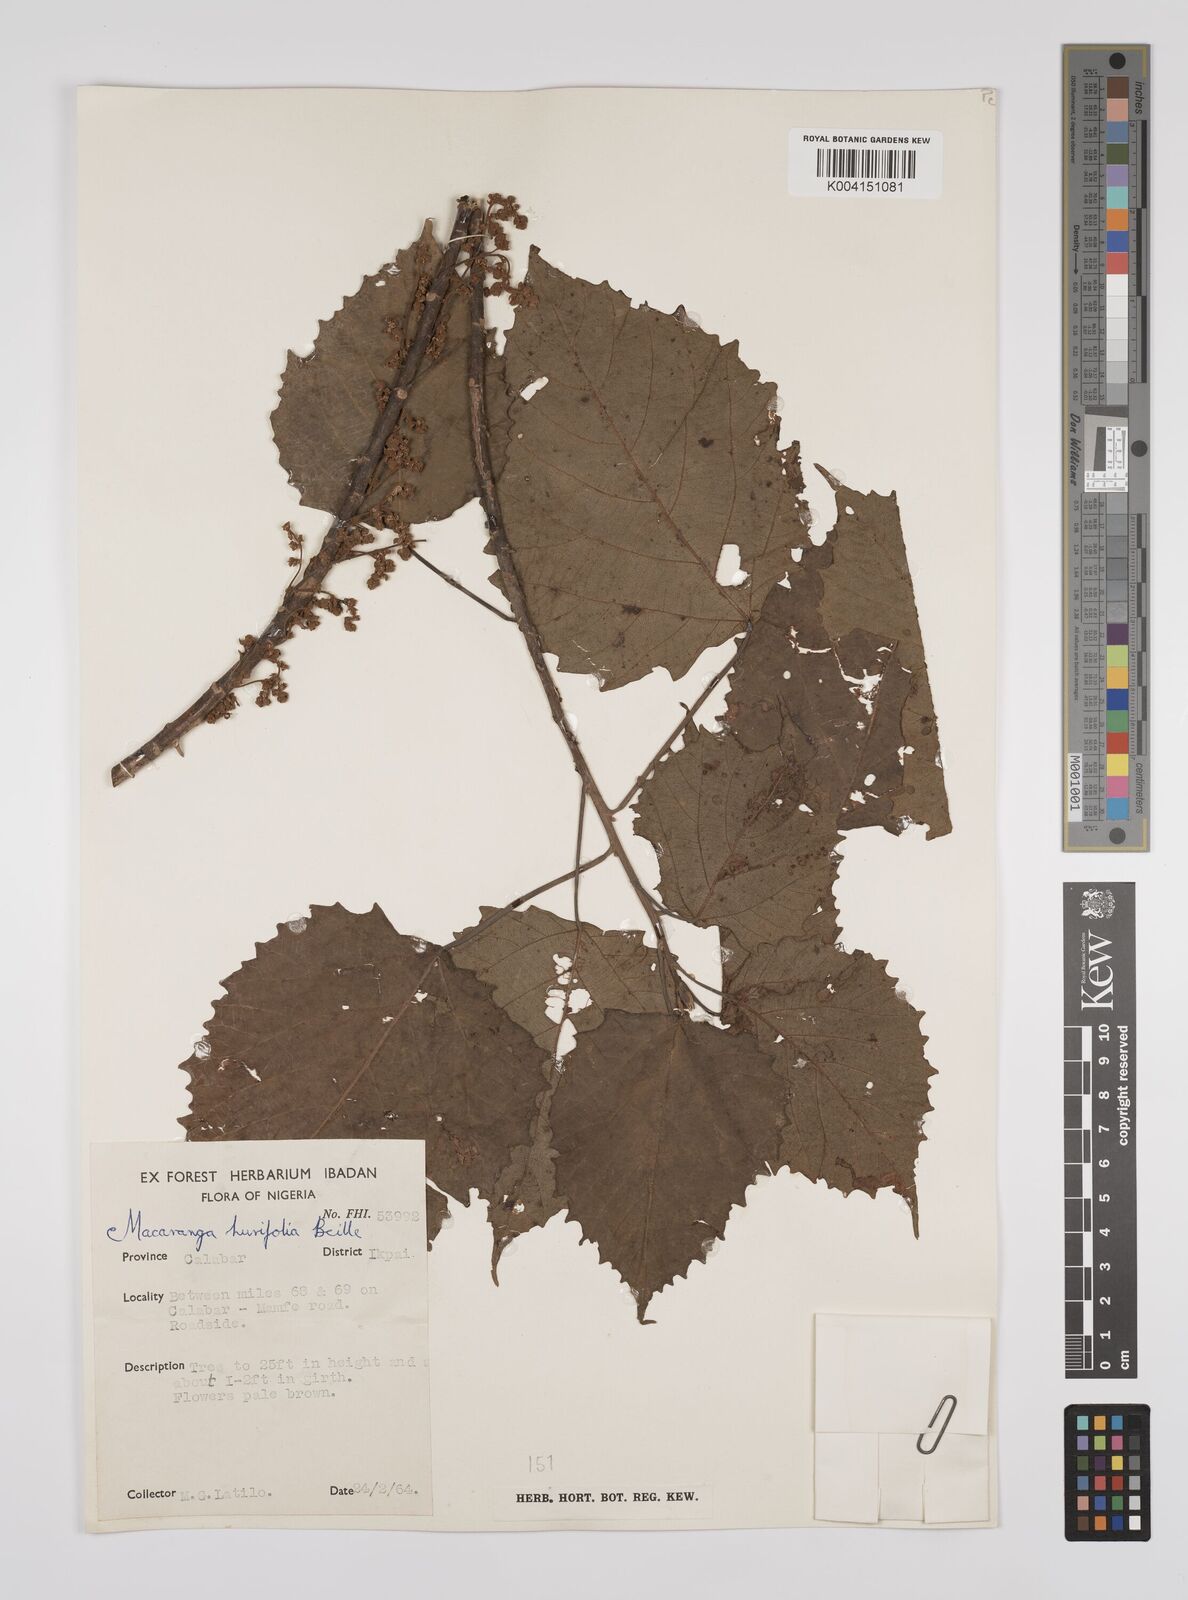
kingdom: Plantae
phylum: Tracheophyta
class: Magnoliopsida
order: Malpighiales
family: Euphorbiaceae
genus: Macaranga
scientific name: Macaranga hurifolia
